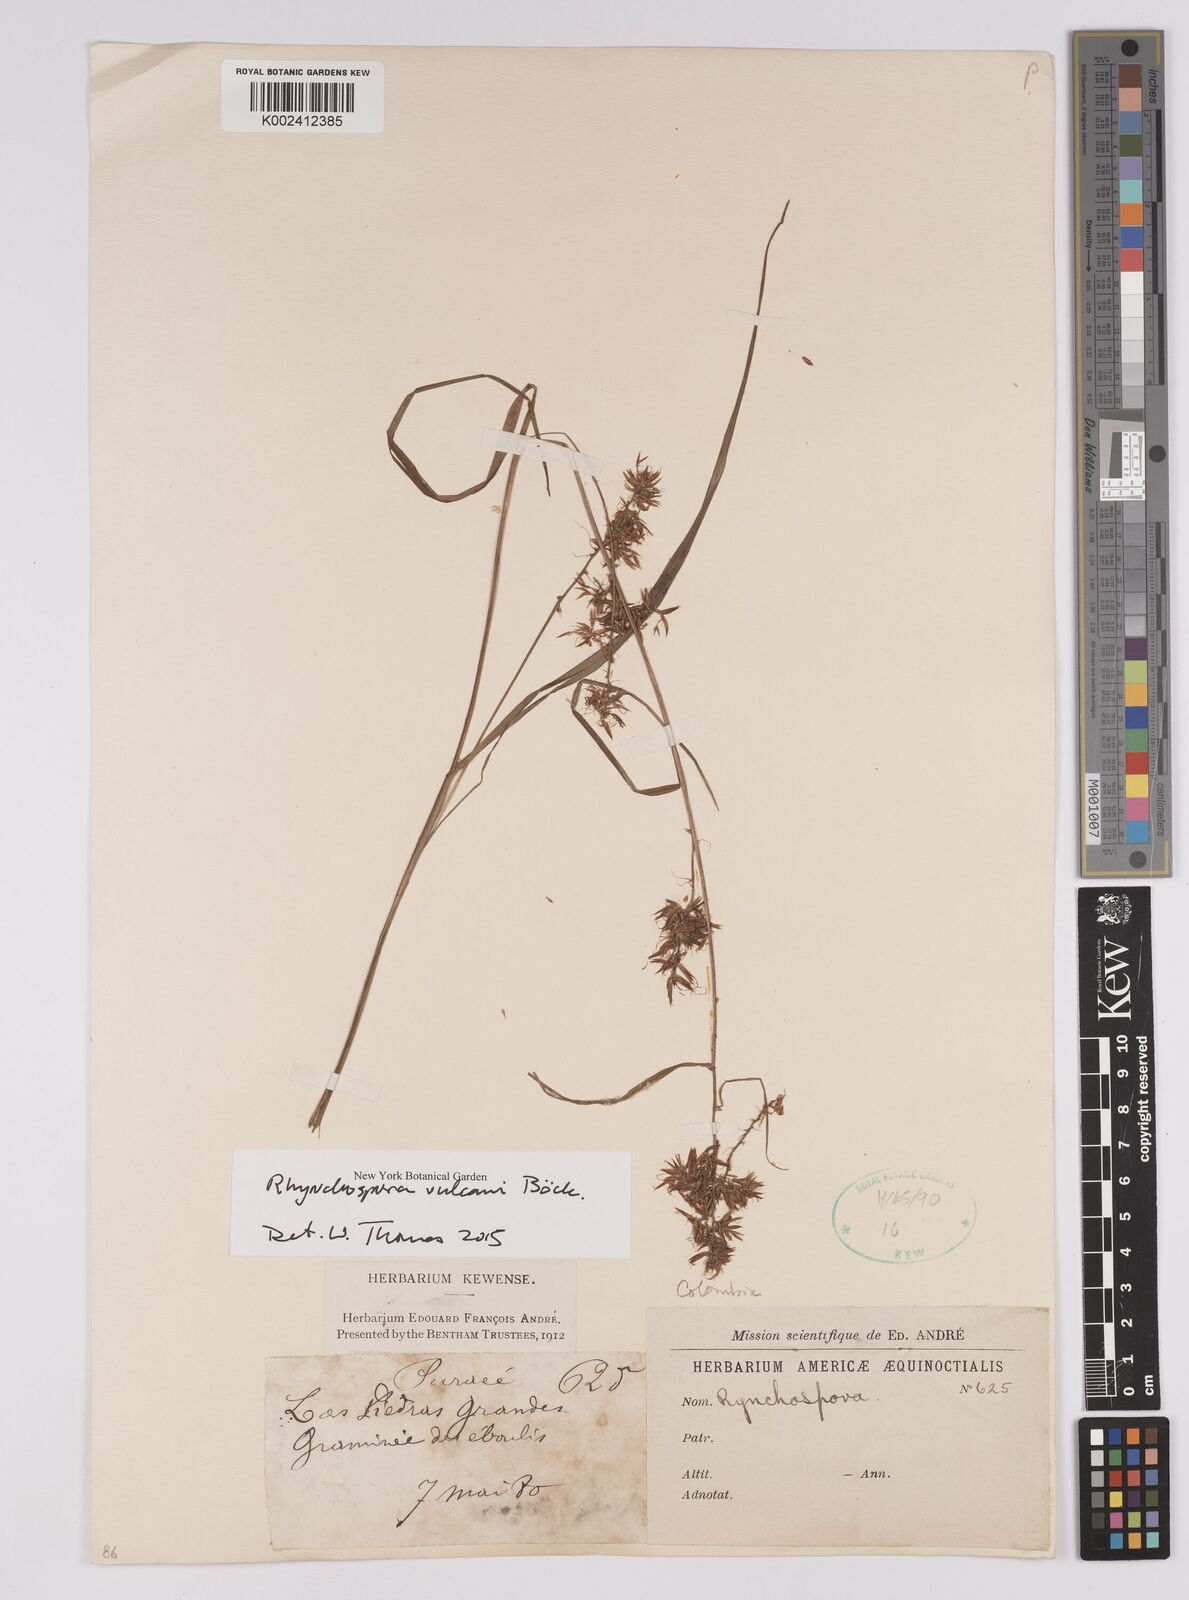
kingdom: Plantae
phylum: Tracheophyta
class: Liliopsida
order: Poales
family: Cyperaceae
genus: Rhynchospora
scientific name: Rhynchospora vulcani
